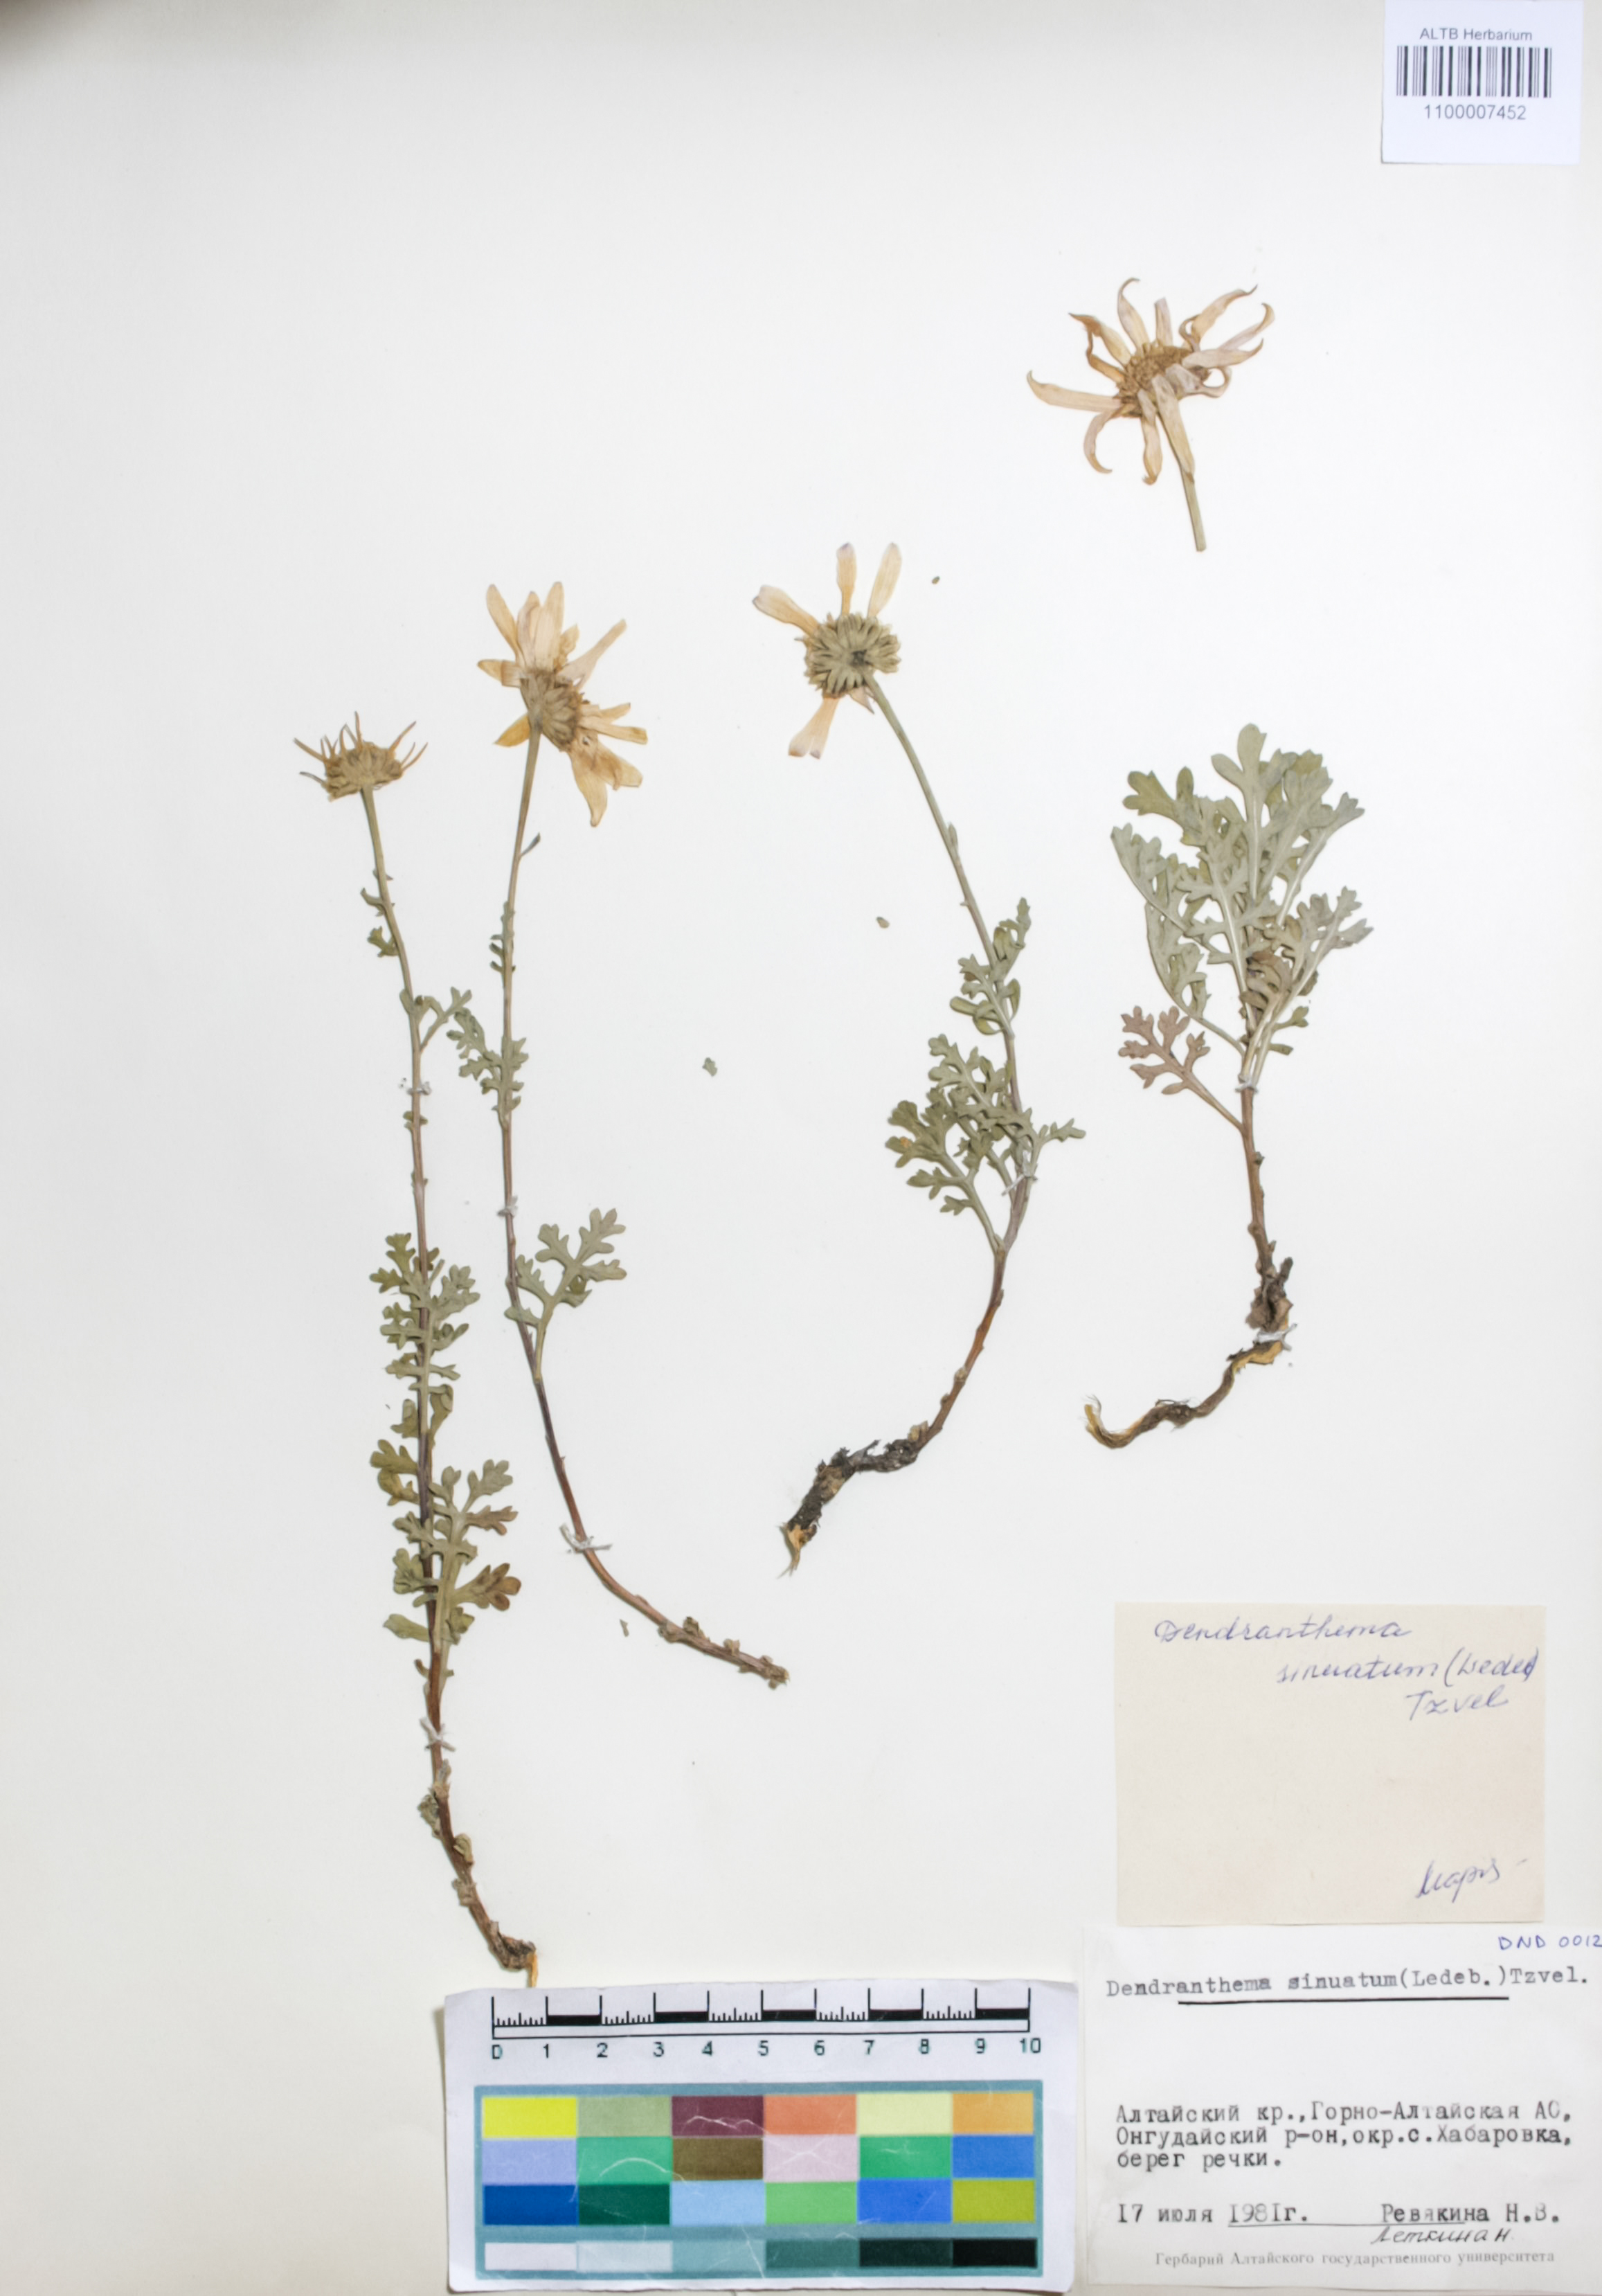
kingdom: Plantae
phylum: Tracheophyta
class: Magnoliopsida
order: Asterales
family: Asteraceae
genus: Chrysanthemum
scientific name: Chrysanthemum sinuatum
